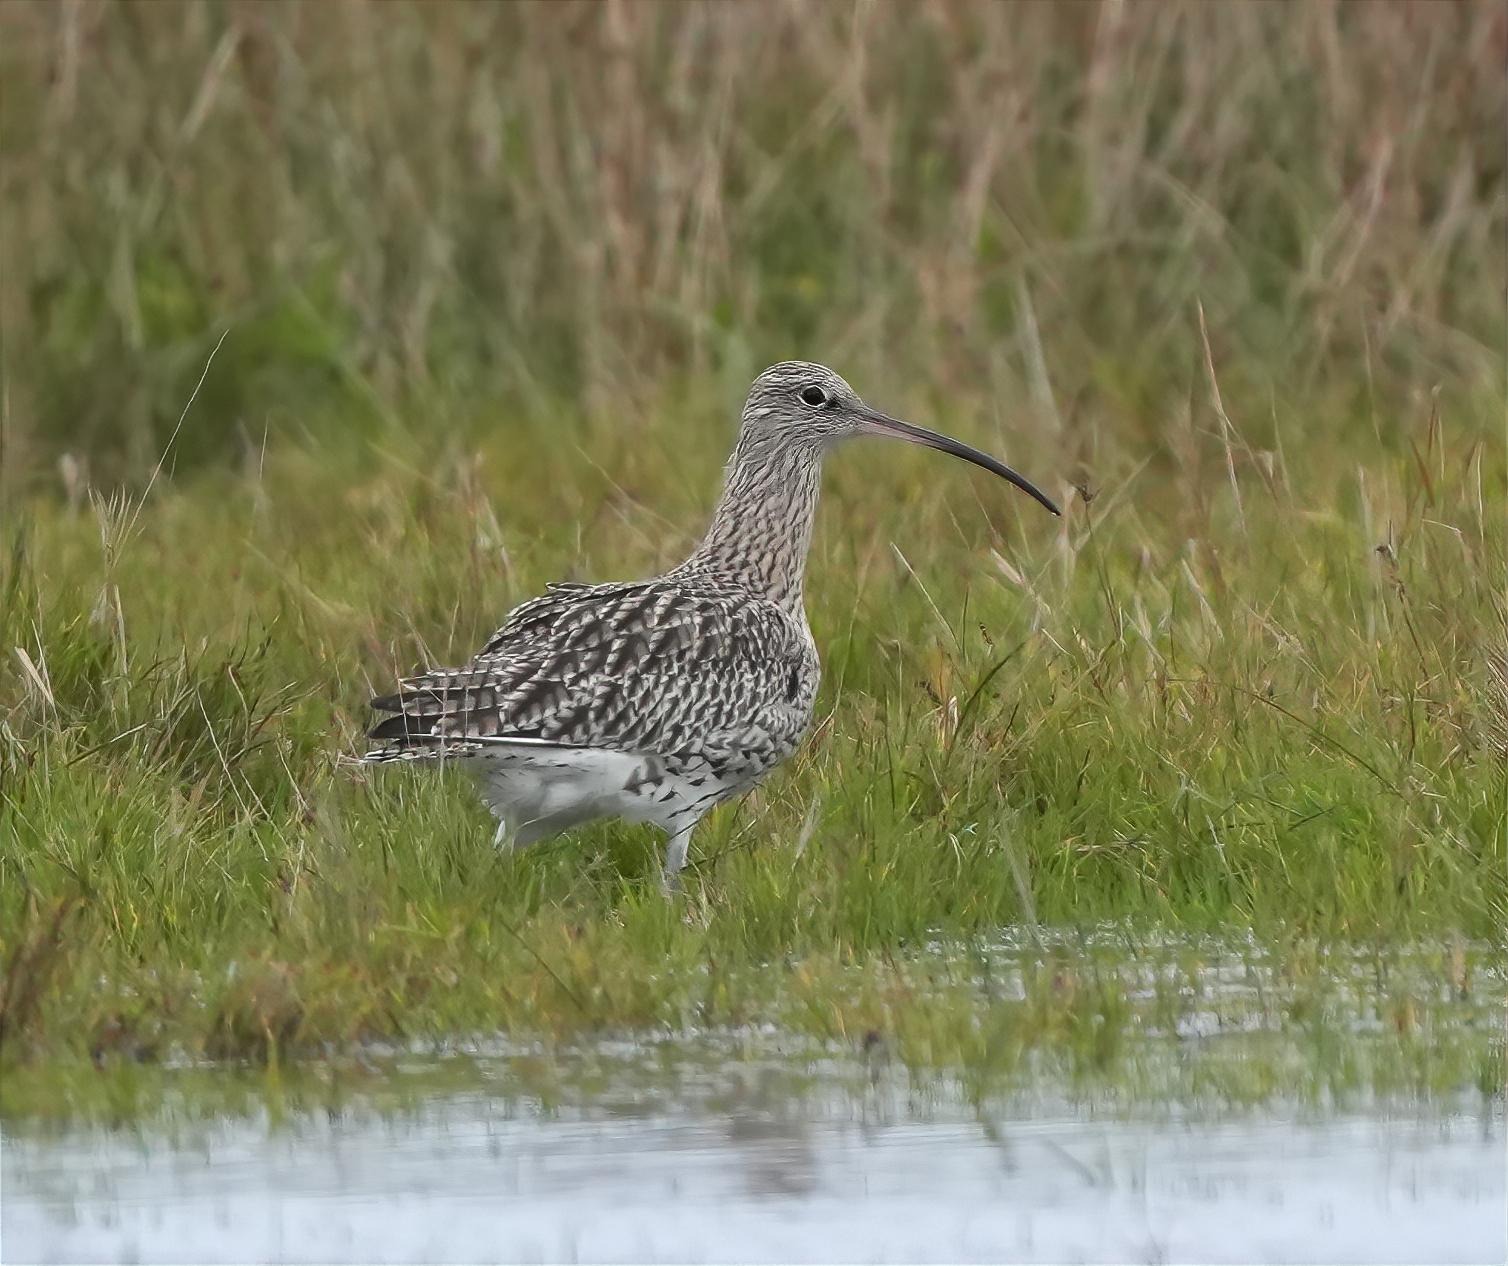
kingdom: Animalia
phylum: Chordata
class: Aves
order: Charadriiformes
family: Scolopacidae
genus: Numenius
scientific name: Numenius arquata
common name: Storspove
